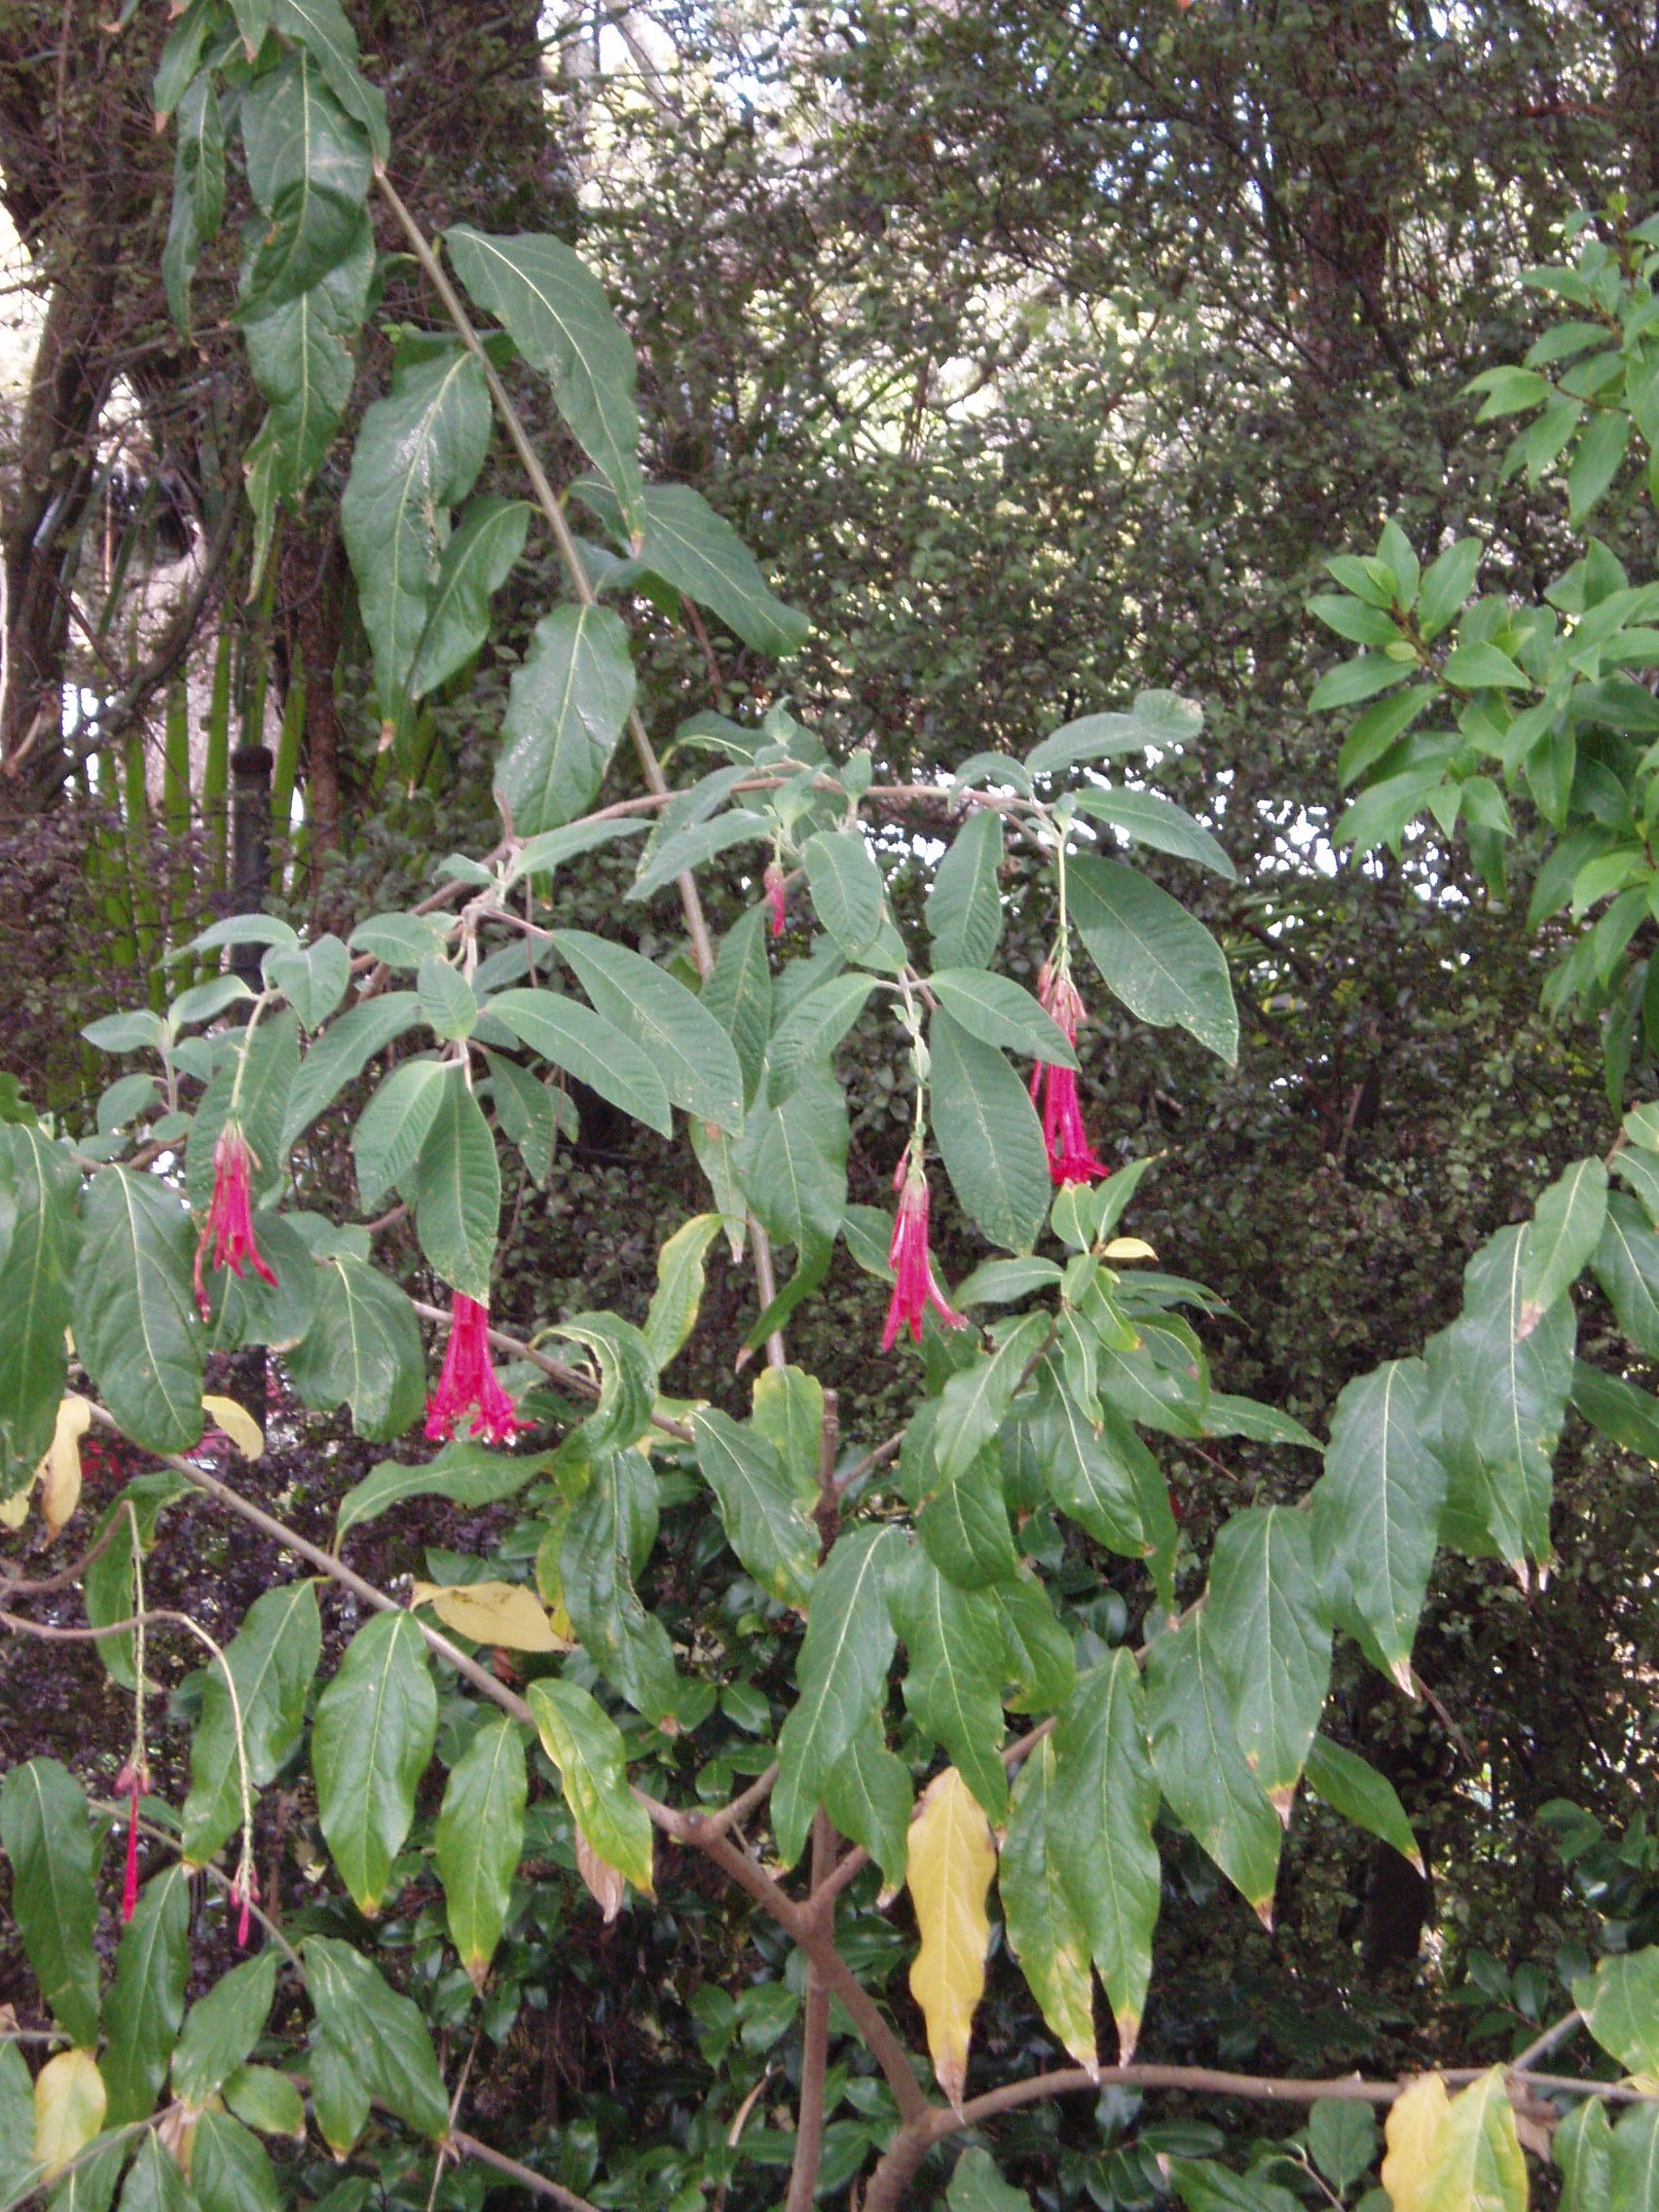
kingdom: Plantae
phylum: Tracheophyta
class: Magnoliopsida
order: Laurales
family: Calycanthaceae
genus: Chimonanthus
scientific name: Chimonanthus praecox
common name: Wintersweet
